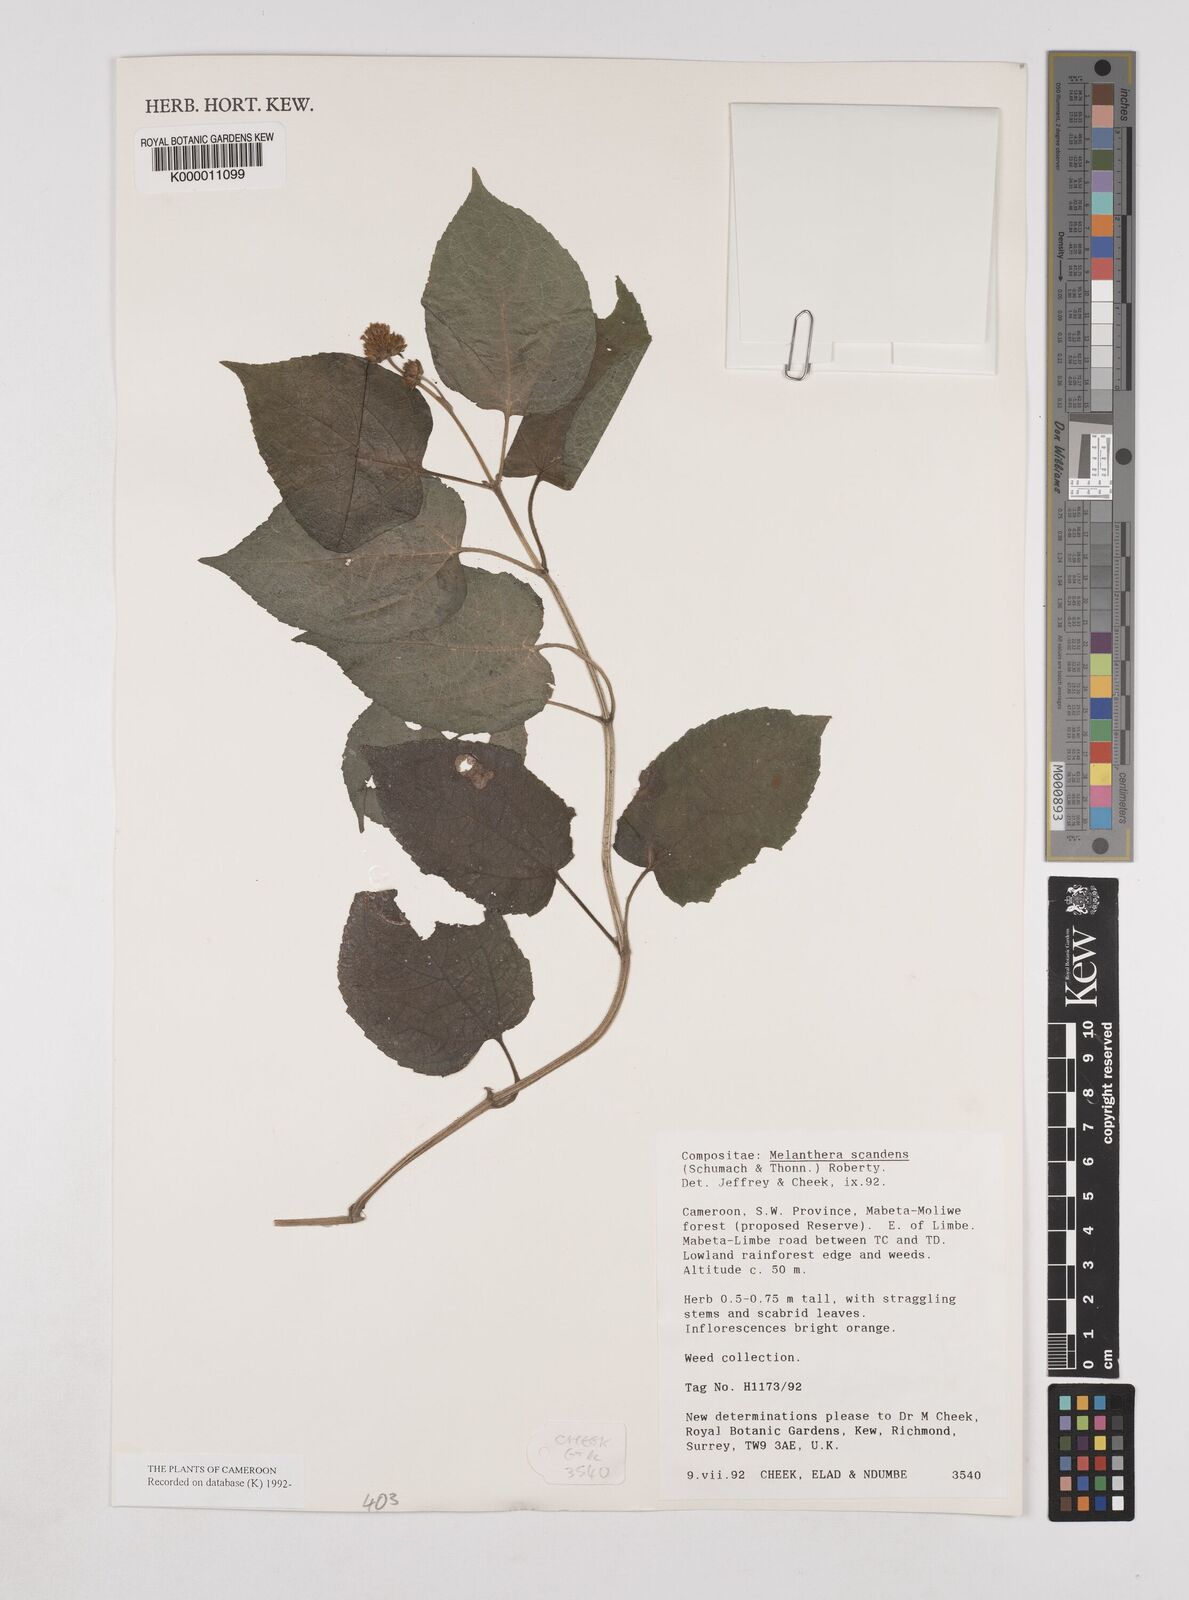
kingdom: Plantae
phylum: Tracheophyta
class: Magnoliopsida
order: Asterales
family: Asteraceae
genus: Melanthera
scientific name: Melanthera
